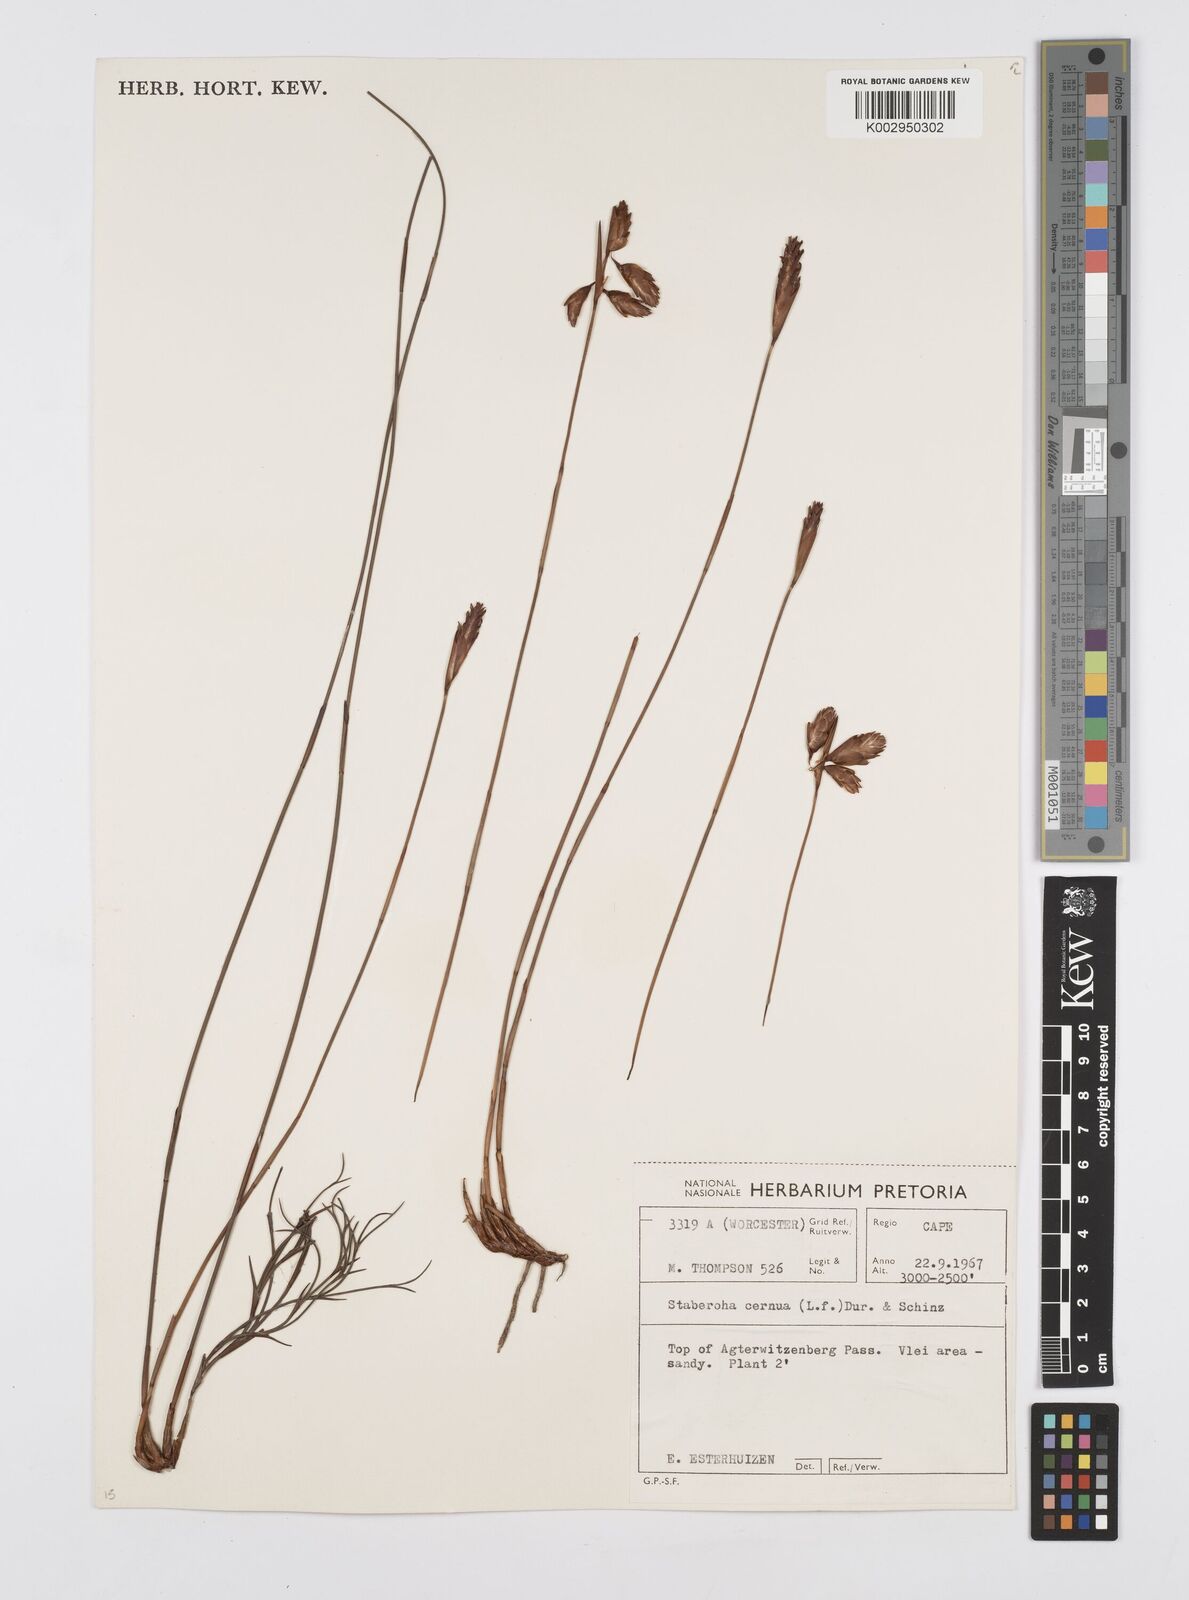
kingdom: Plantae
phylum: Tracheophyta
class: Liliopsida
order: Poales
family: Restionaceae
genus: Staberoha
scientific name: Staberoha cernua
